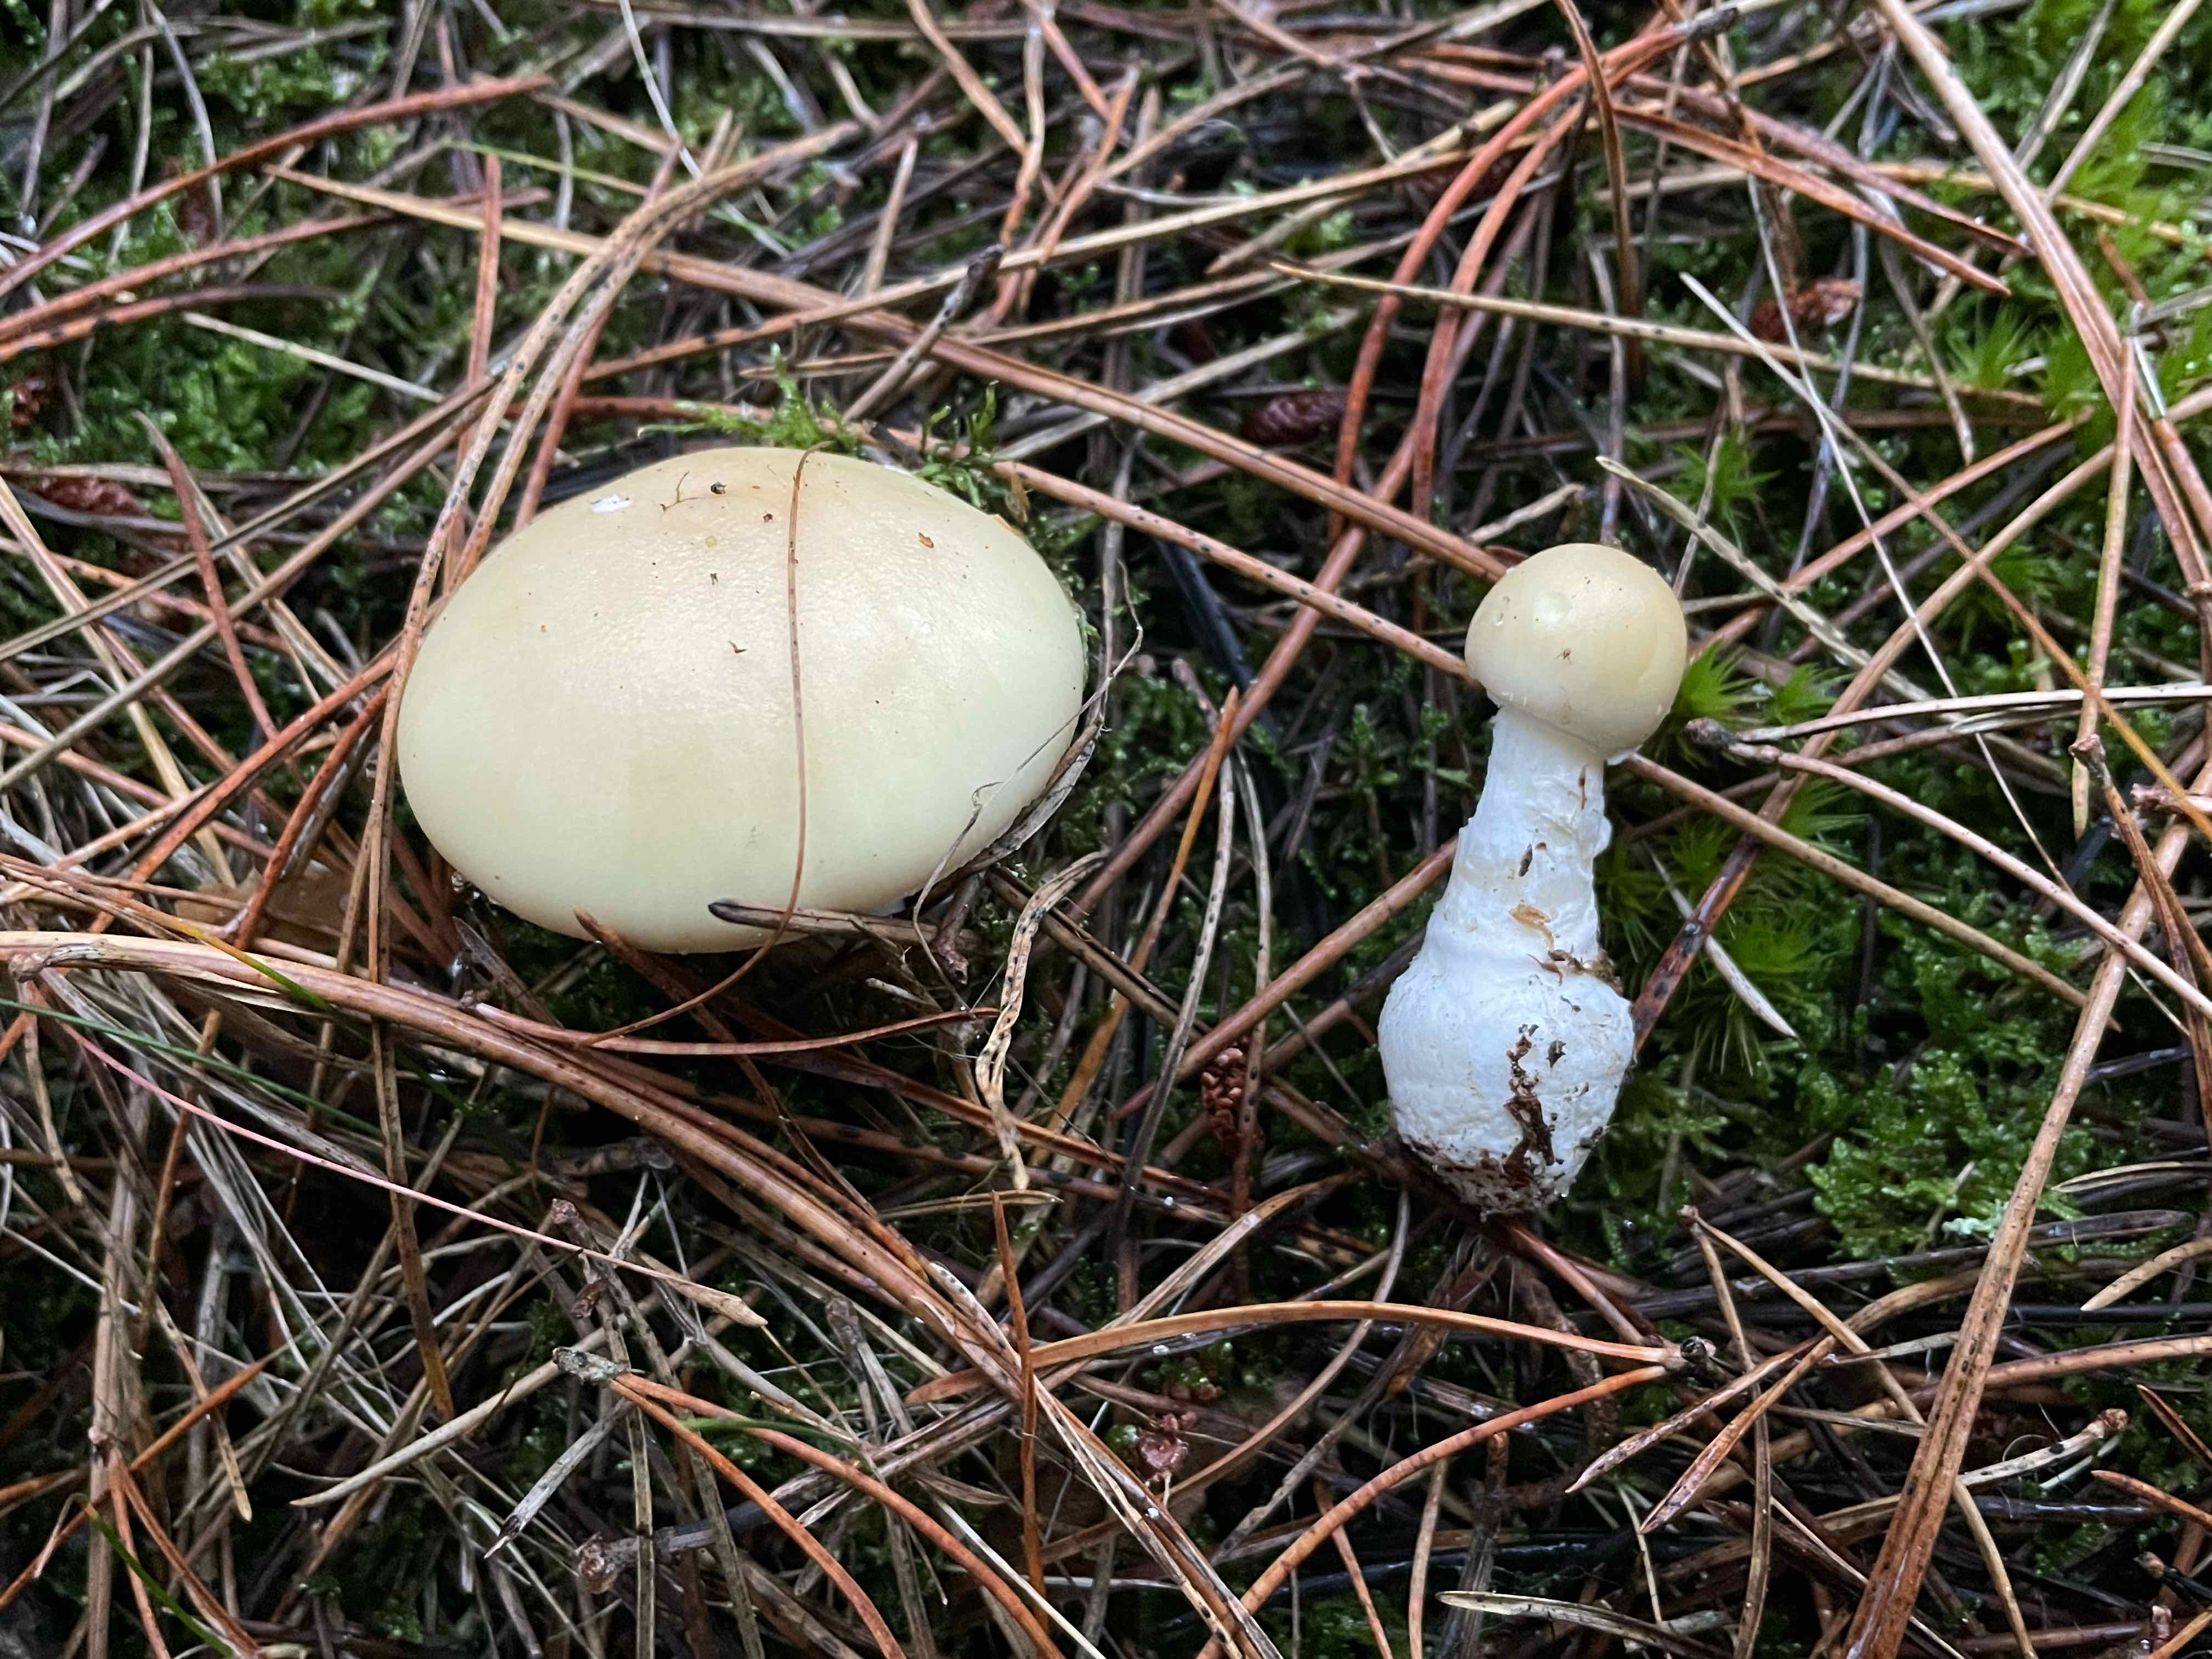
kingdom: Fungi
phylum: Basidiomycota
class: Agaricomycetes
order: Agaricales
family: Amanitaceae
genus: Amanita
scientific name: Amanita gemmata
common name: okkergul fluesvamp
